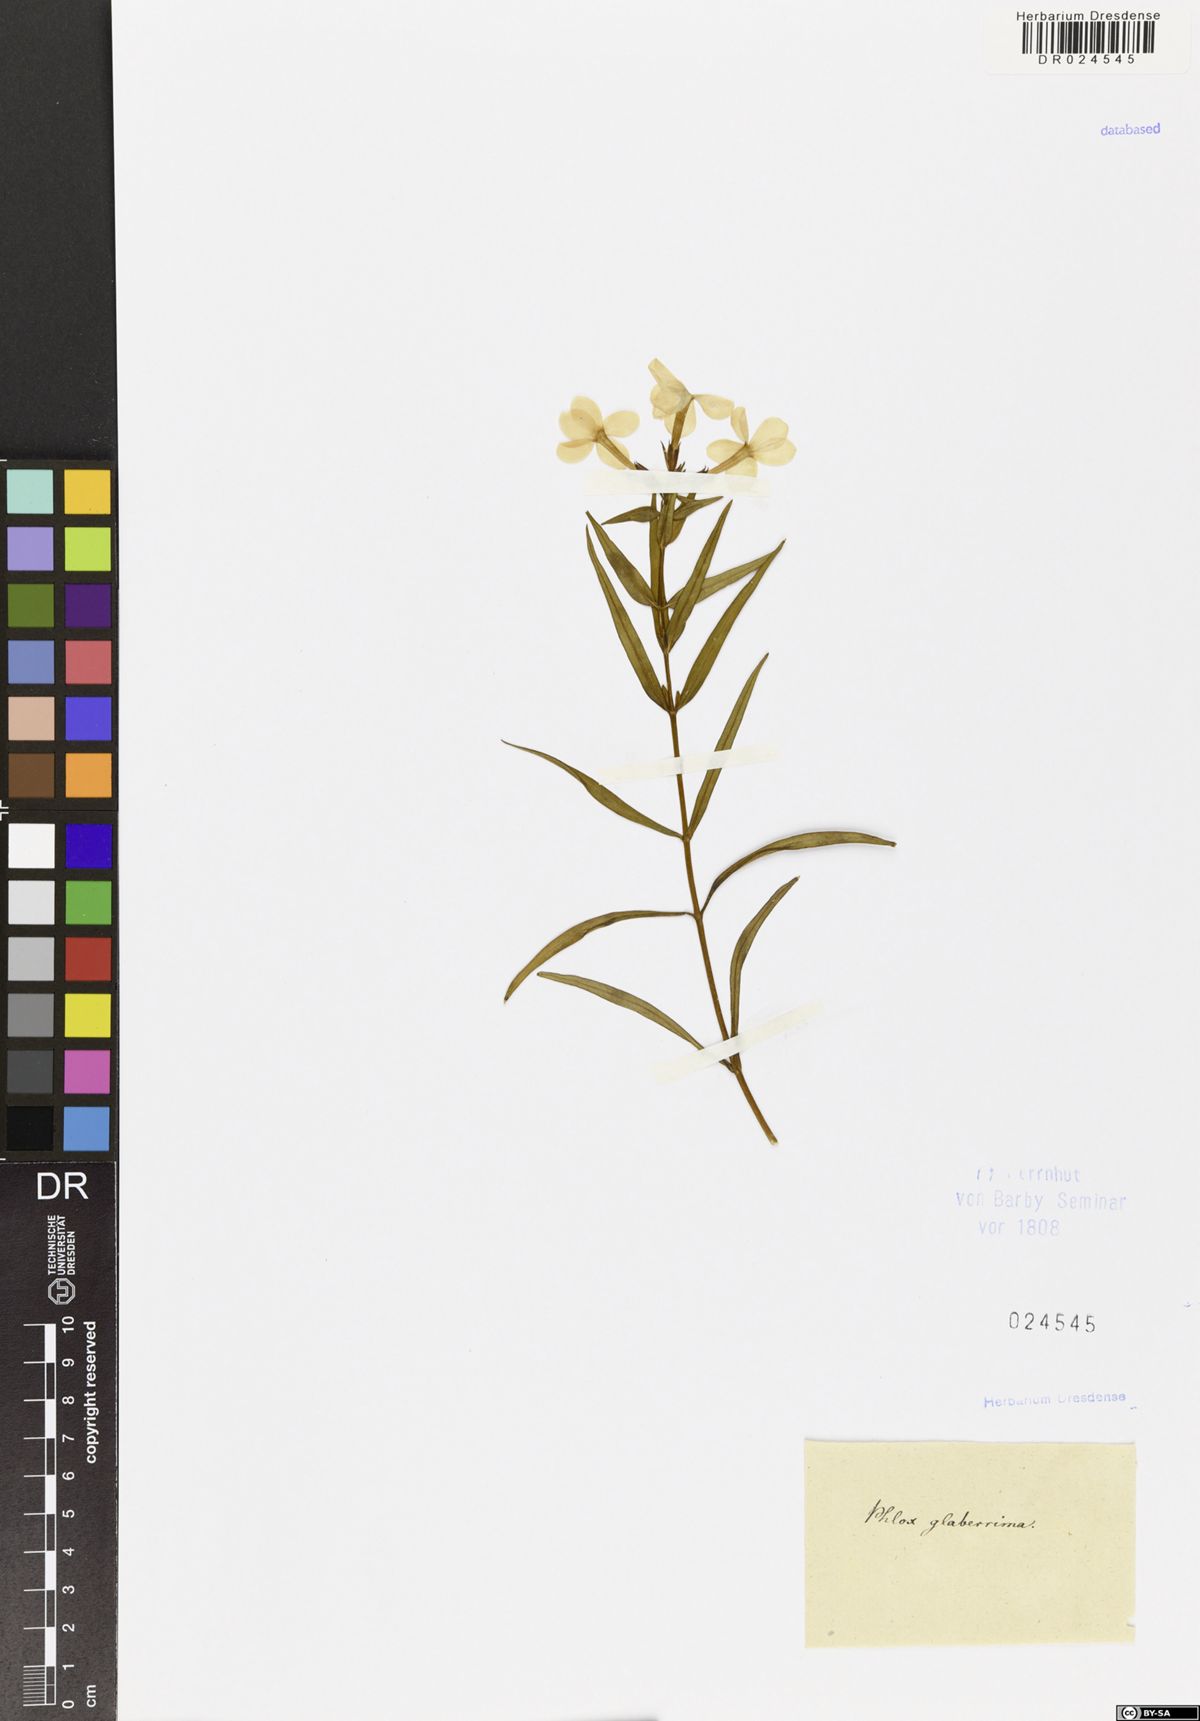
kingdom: Plantae
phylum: Tracheophyta
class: Magnoliopsida
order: Ericales
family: Polemoniaceae
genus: Phlox
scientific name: Phlox glaberrima
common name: Smooth phlox
